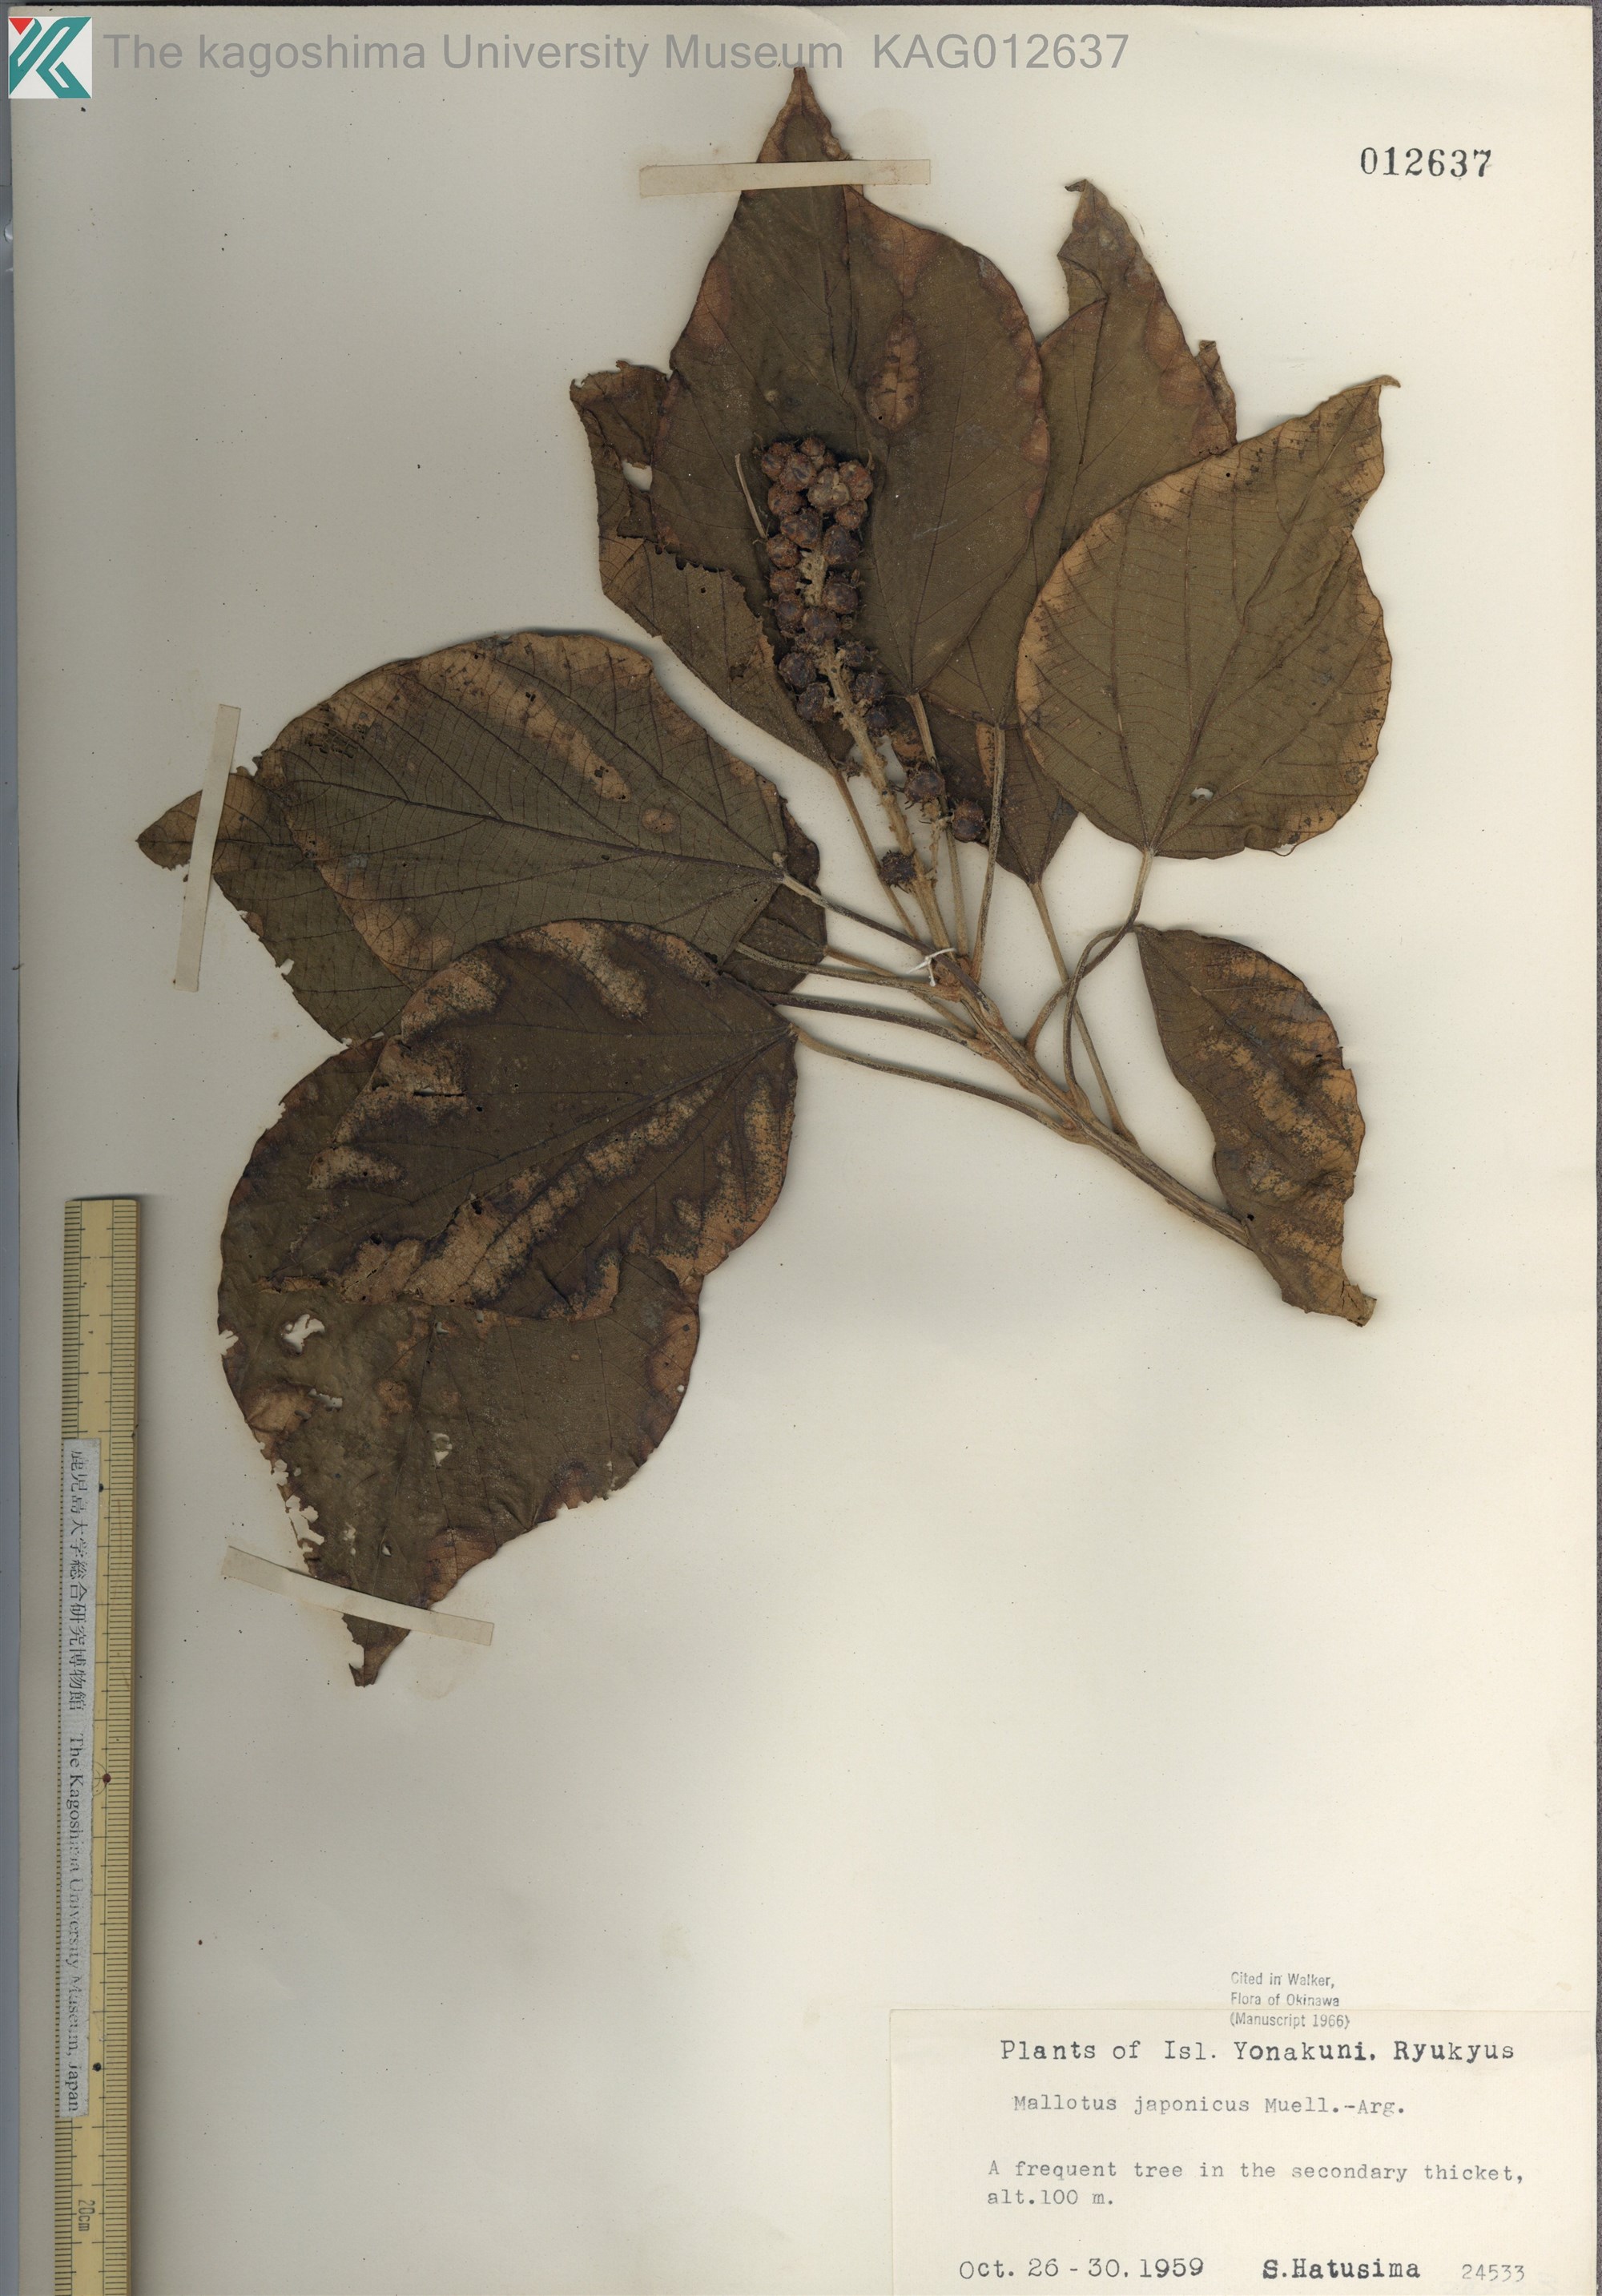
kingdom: Plantae
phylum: Tracheophyta
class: Magnoliopsida
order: Malpighiales
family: Euphorbiaceae
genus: Mallotus
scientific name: Mallotus japonicus
